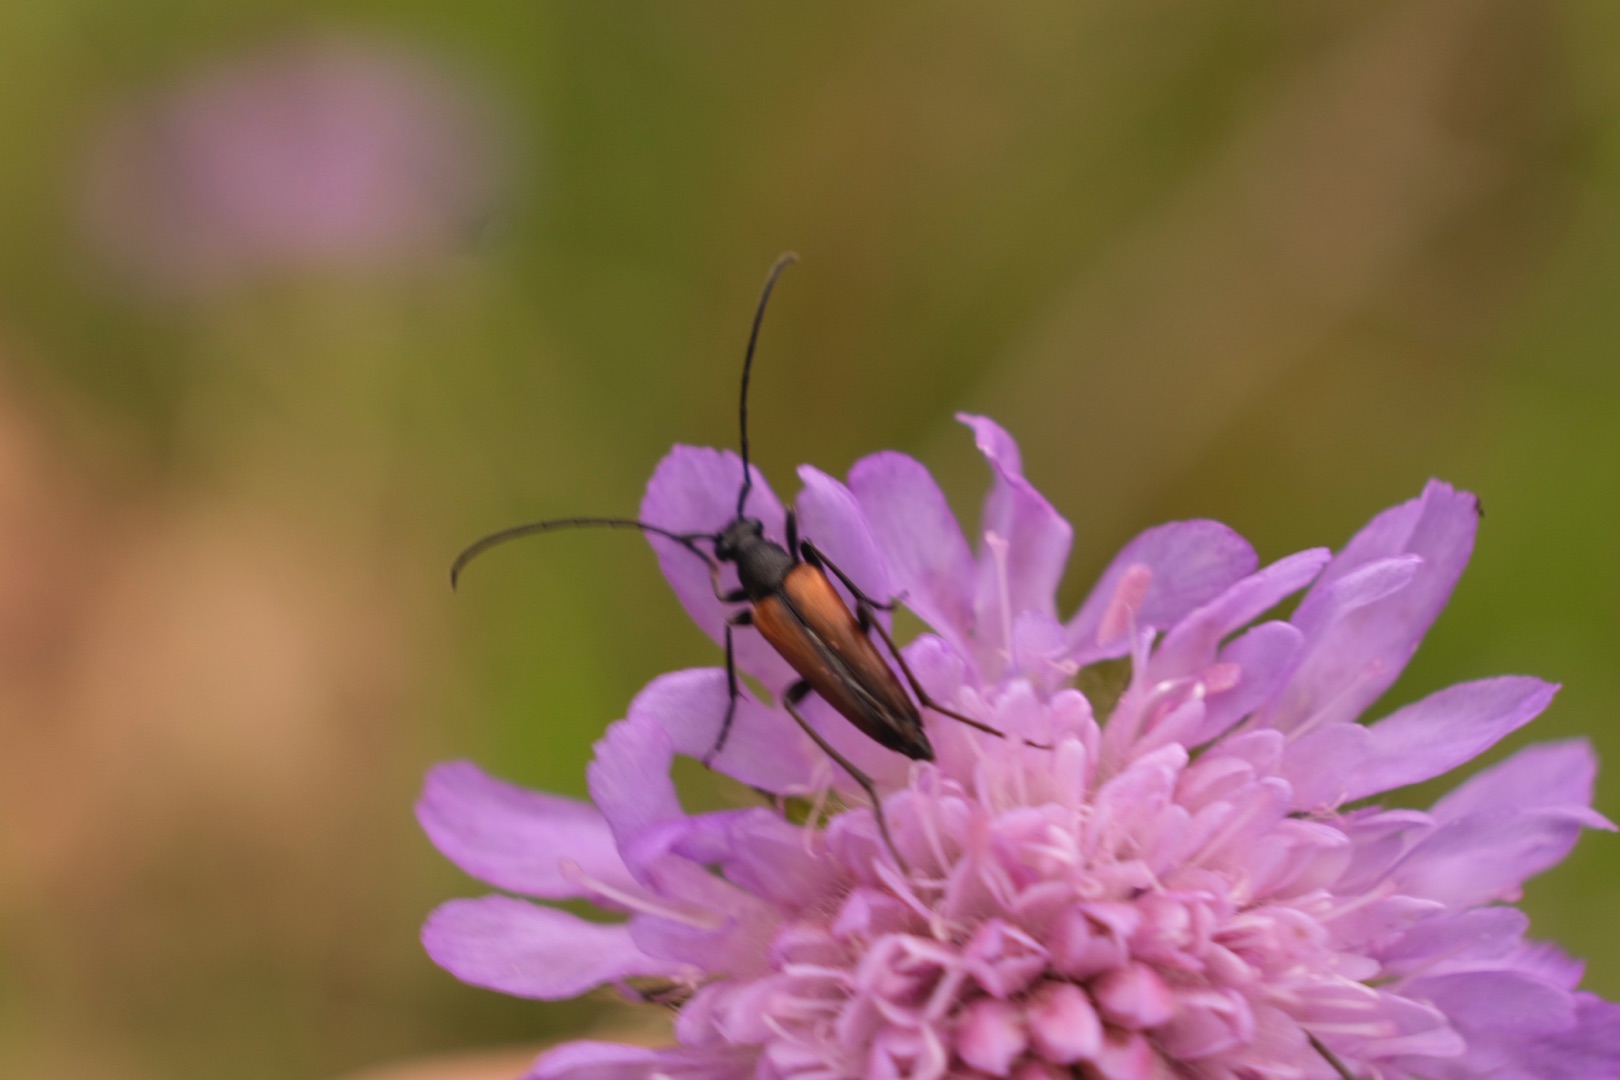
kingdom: Animalia
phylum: Arthropoda
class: Insecta
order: Coleoptera
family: Cerambycidae
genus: Stenurella
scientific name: Stenurella melanura
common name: Sortsømmet blomsterbuk
